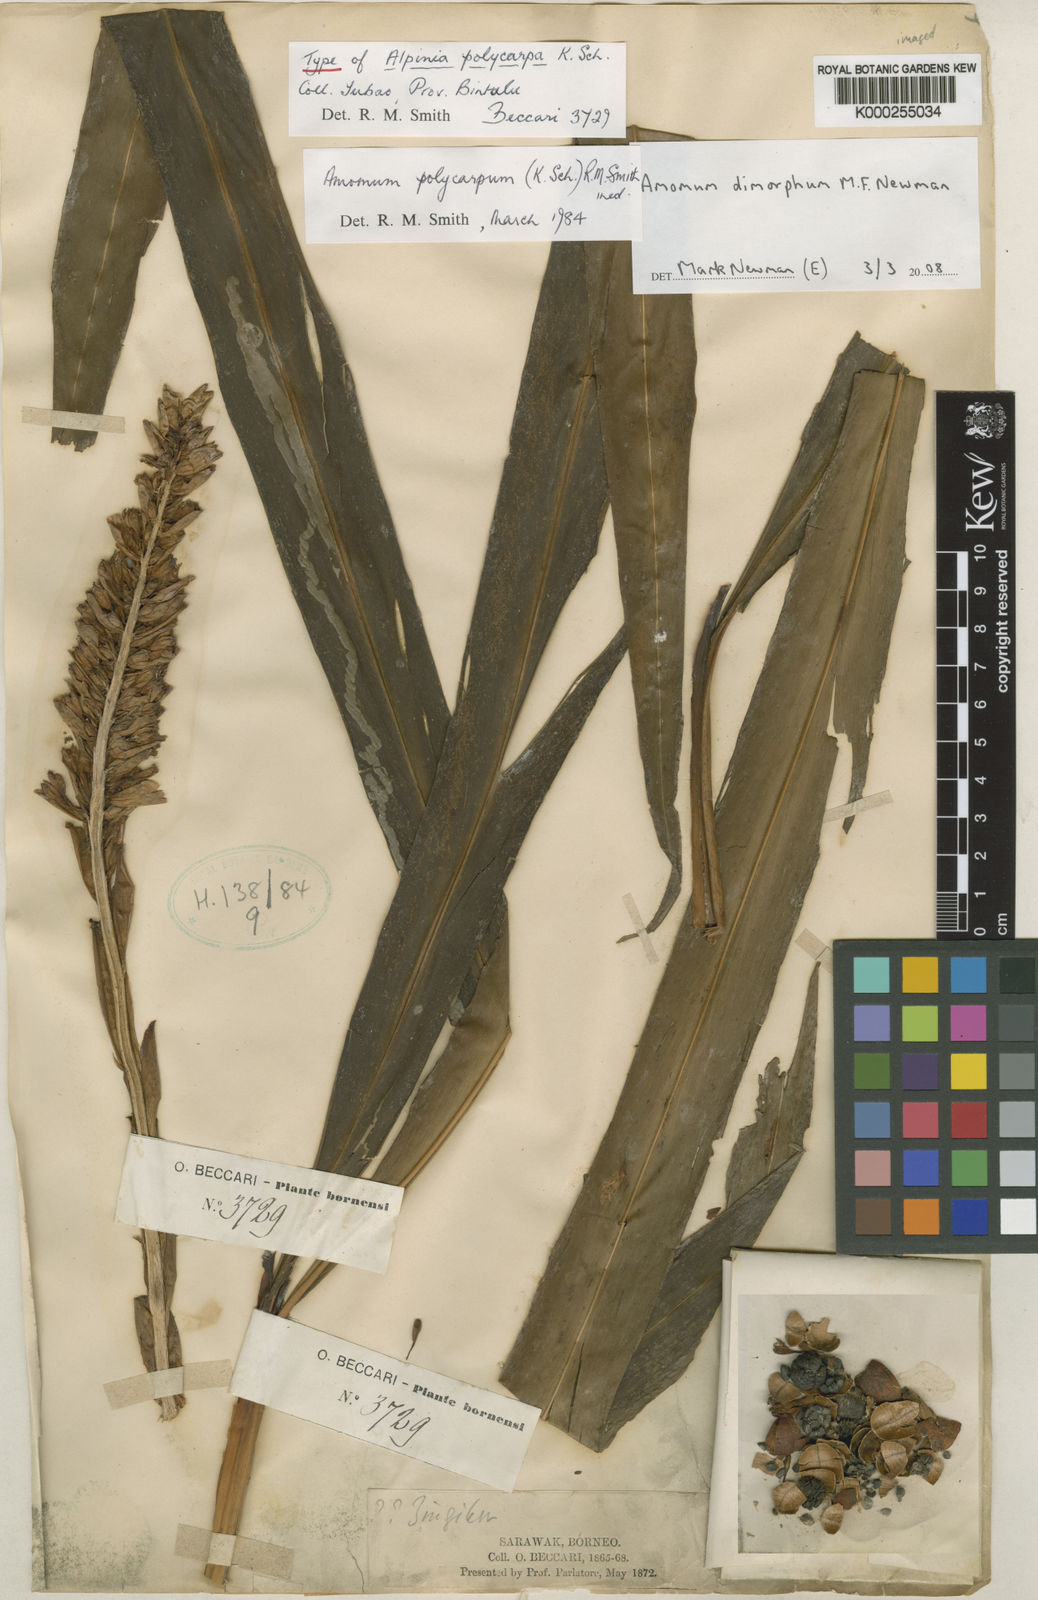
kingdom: Plantae
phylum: Tracheophyta
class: Liliopsida
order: Zingiberales
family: Zingiberaceae
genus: Sulettaria
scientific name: Sulettaria polycarpa
